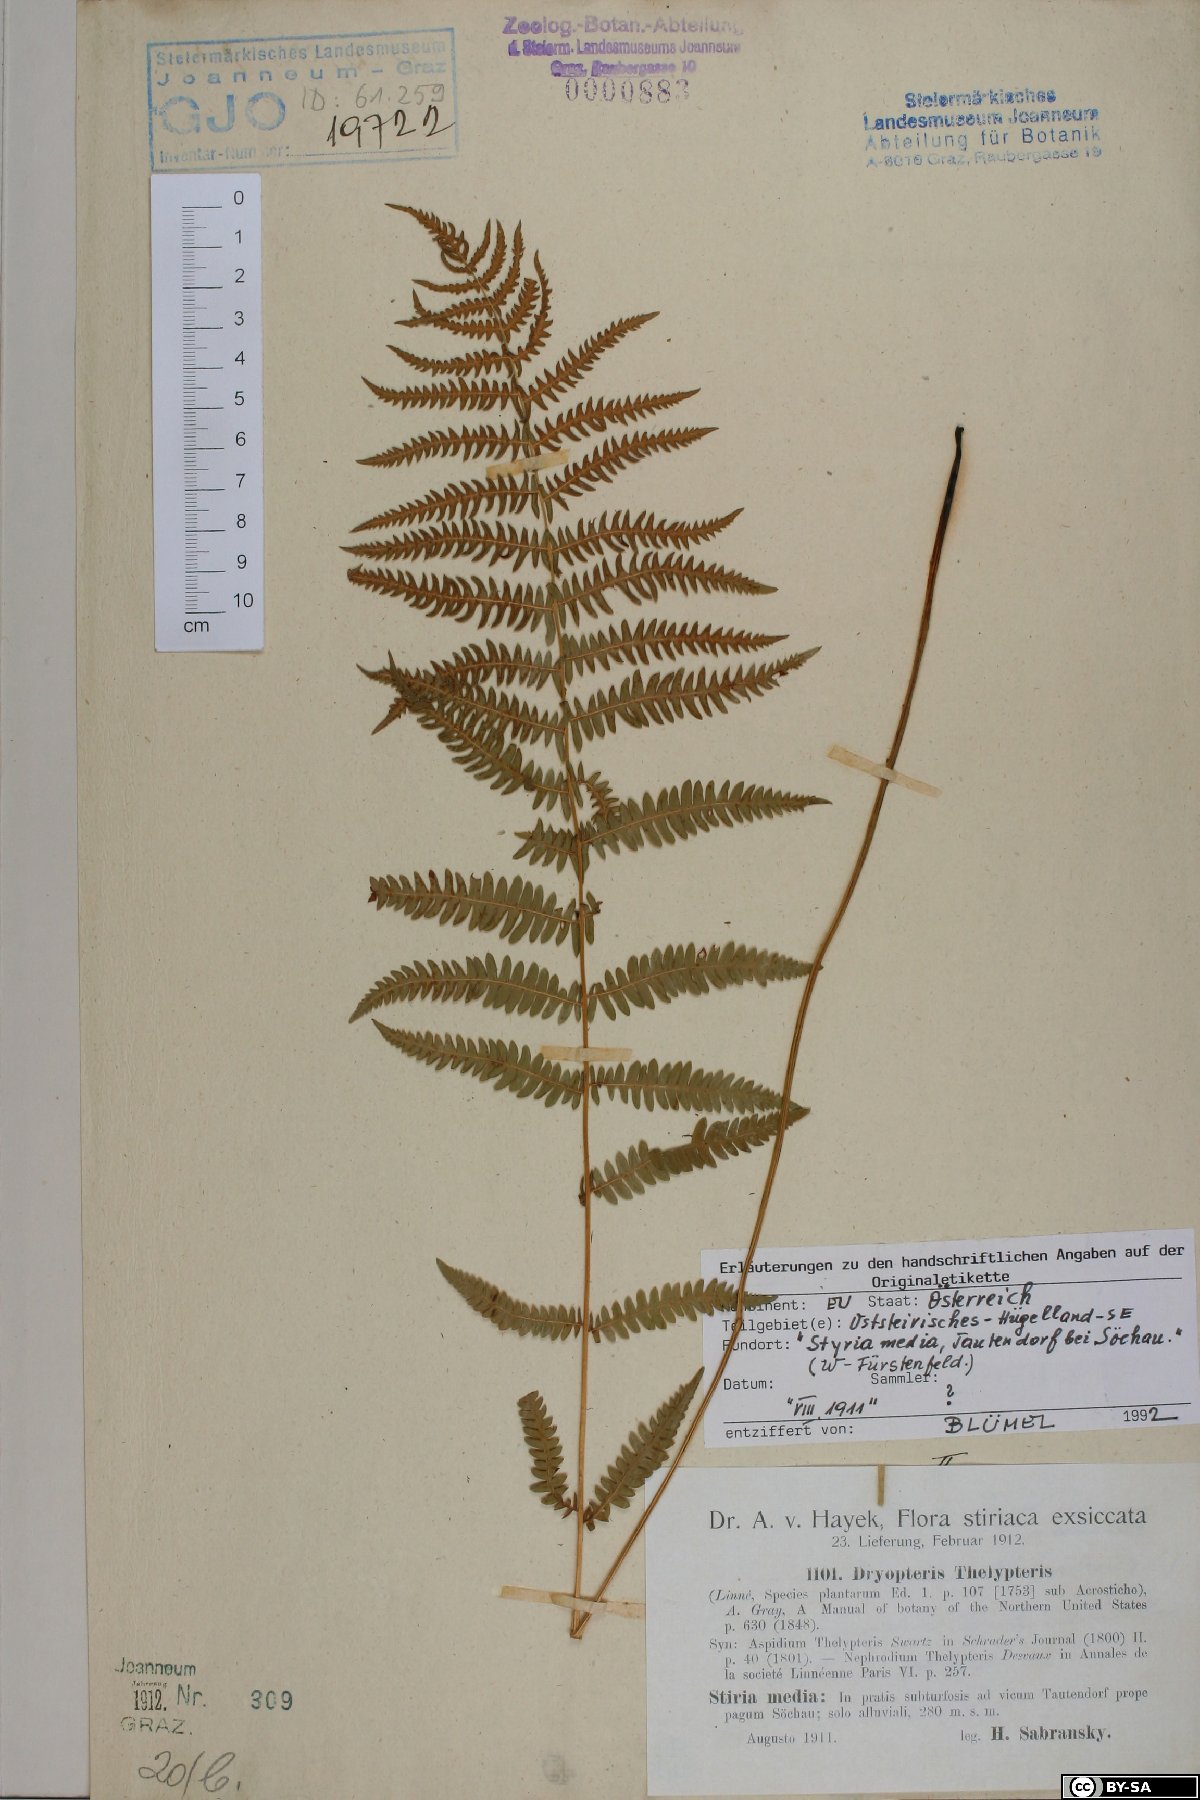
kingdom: Plantae
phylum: Tracheophyta
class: Polypodiopsida
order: Polypodiales
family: Thelypteridaceae
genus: Thelypteris
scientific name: Thelypteris palustris
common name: Marsh fern
